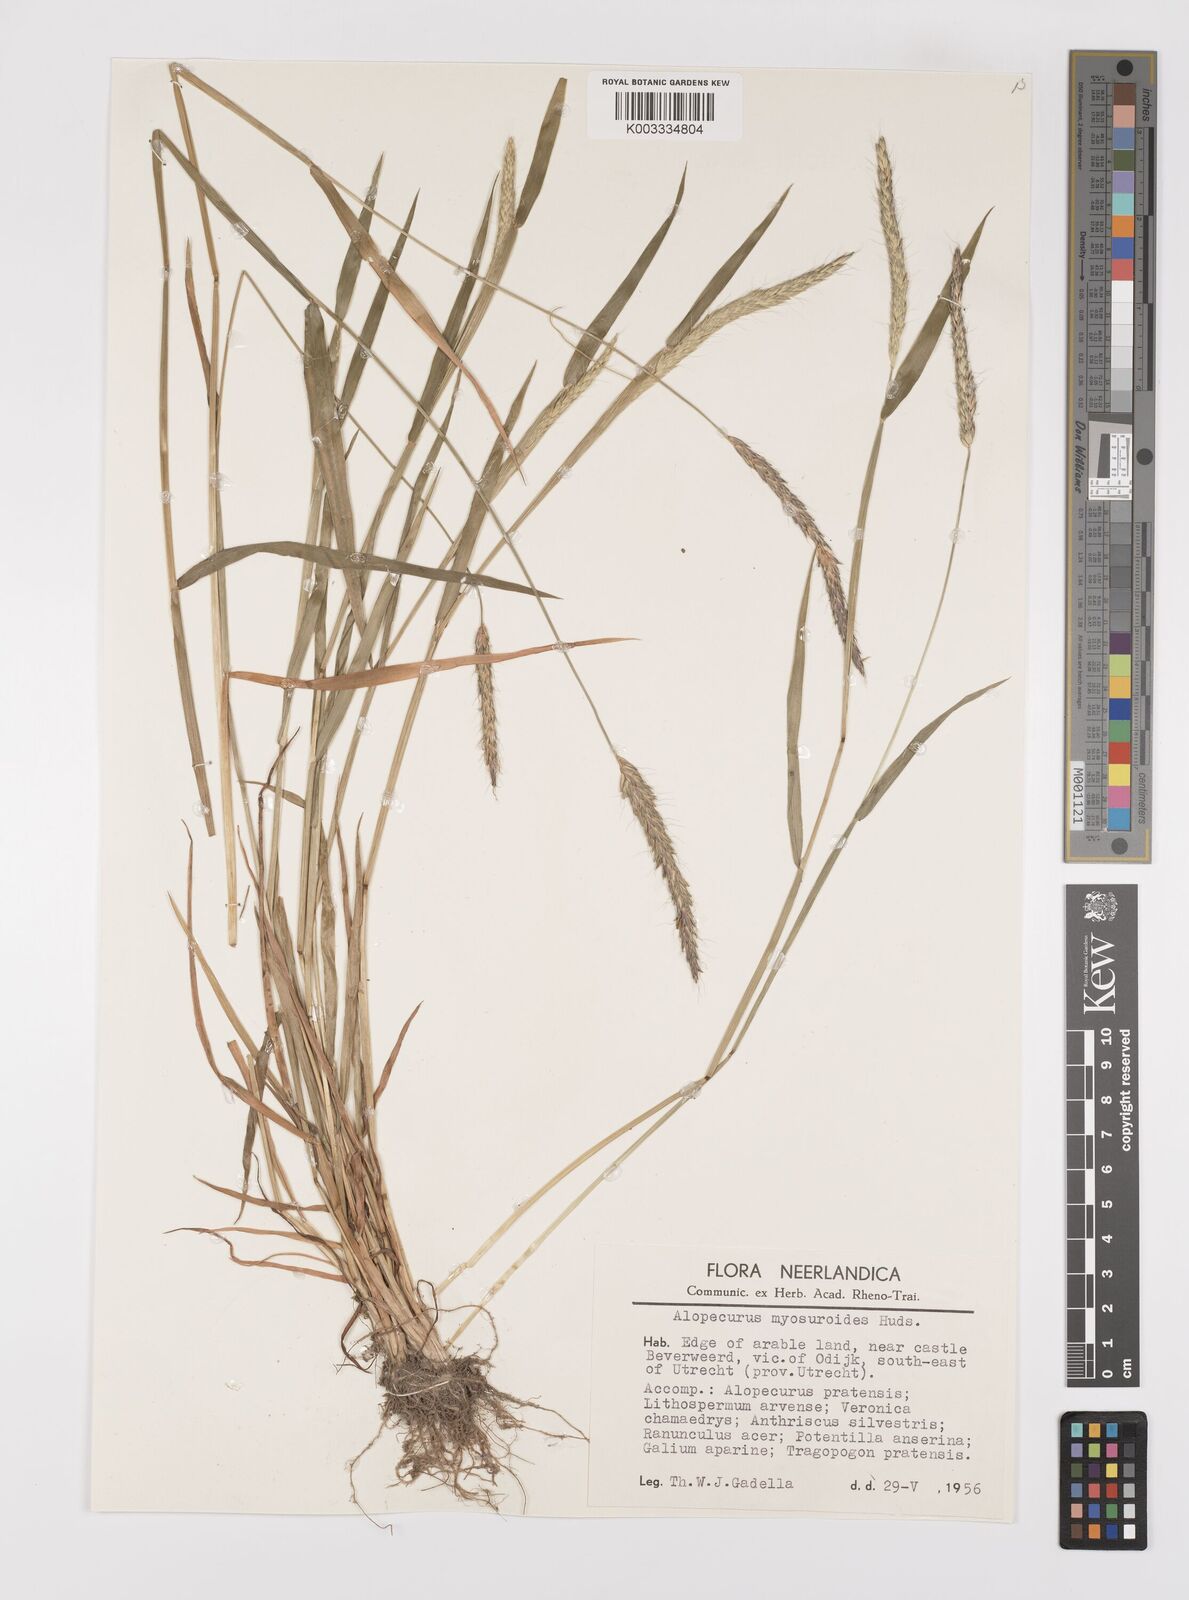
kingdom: Plantae
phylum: Tracheophyta
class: Liliopsida
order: Poales
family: Poaceae
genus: Alopecurus
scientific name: Alopecurus myosuroides
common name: Black-grass
